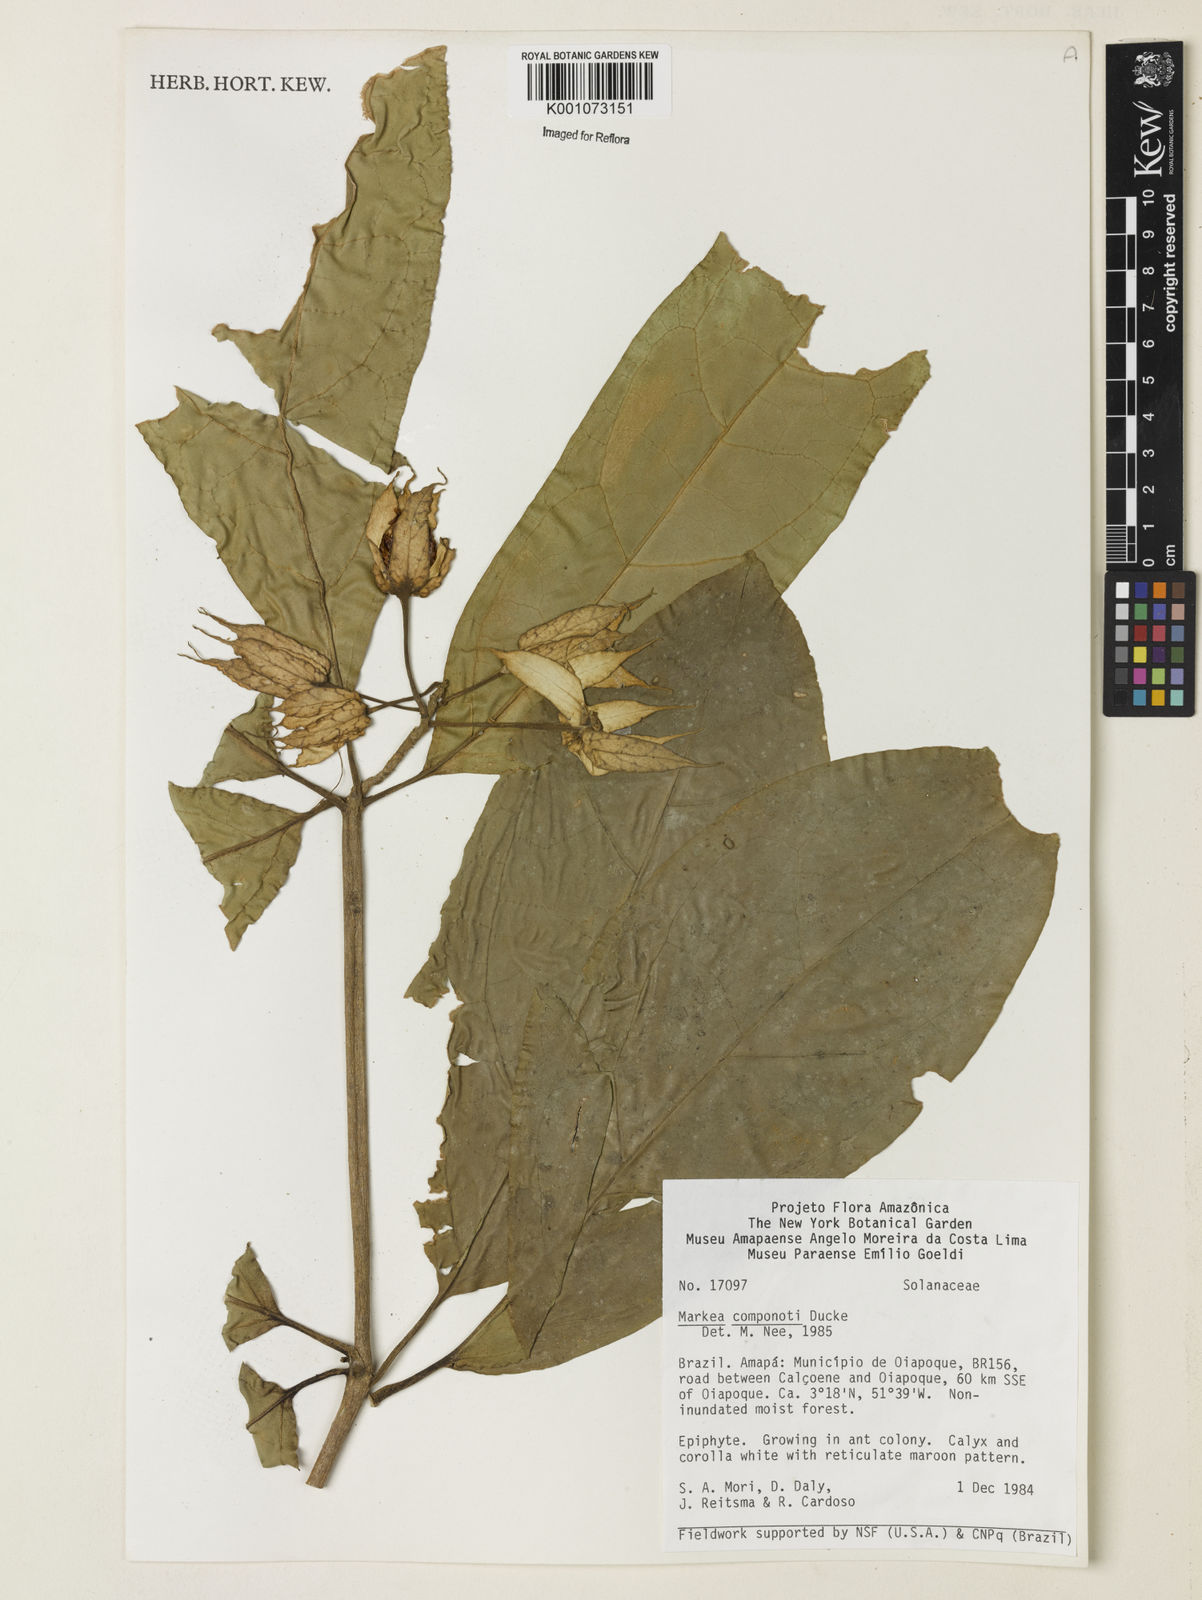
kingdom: Plantae
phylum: Tracheophyta
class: Magnoliopsida
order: Solanales
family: Solanaceae
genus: Markea
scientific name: Markea longiflora
